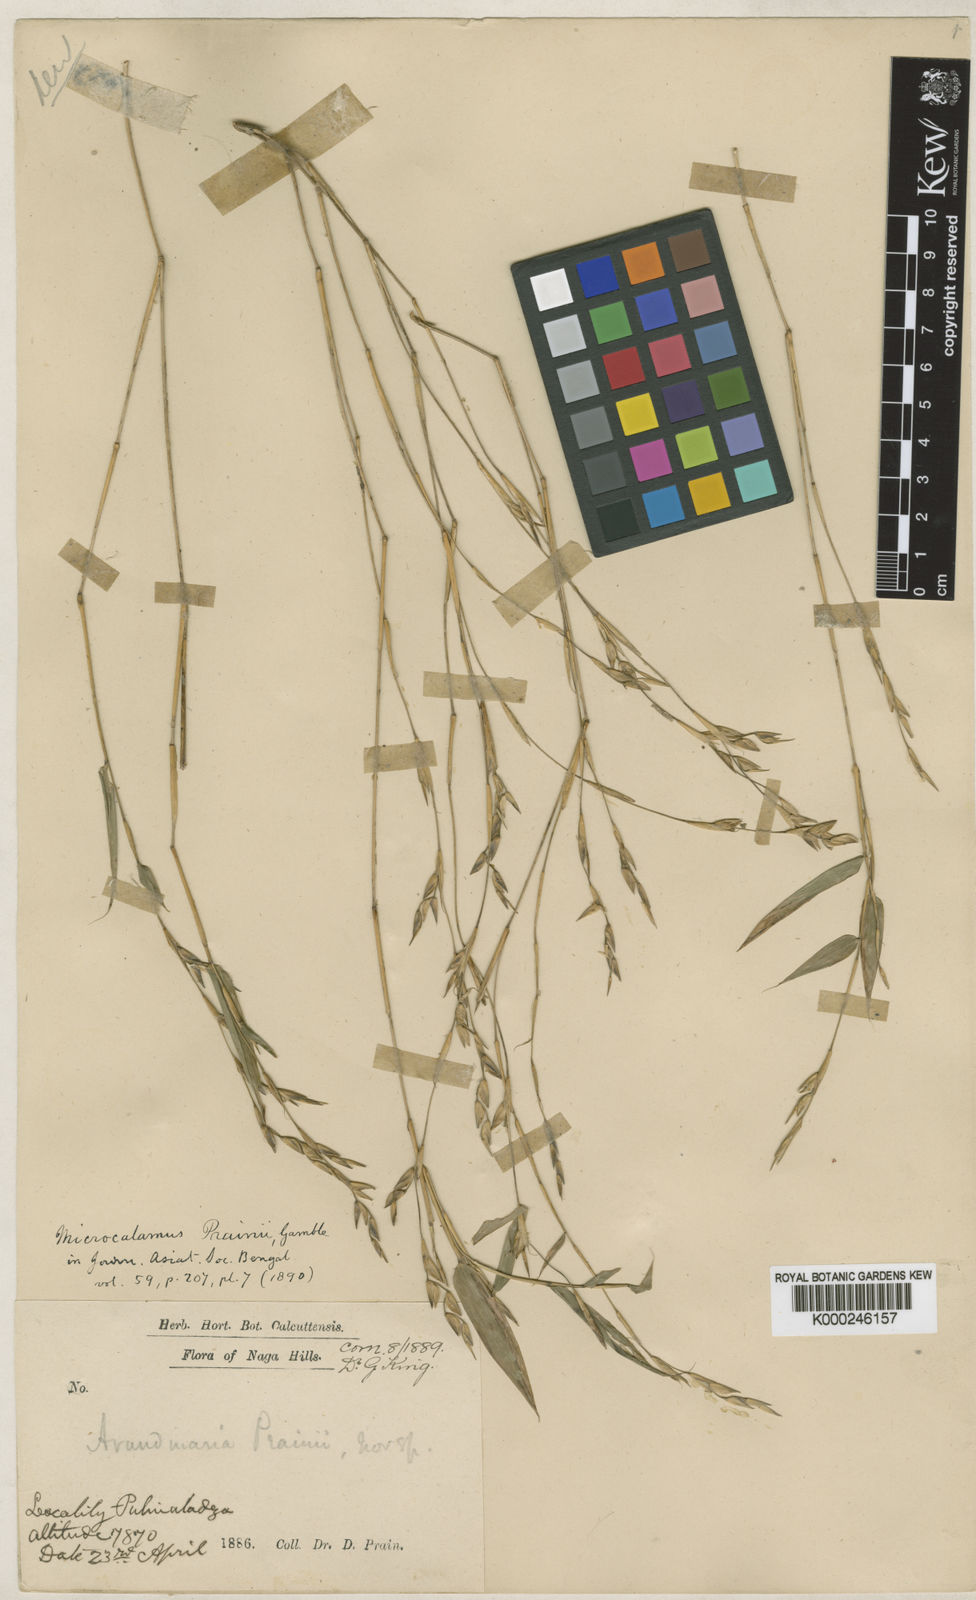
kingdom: Plantae
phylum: Tracheophyta
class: Liliopsida
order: Poales
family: Poaceae
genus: Neomicrocalamus
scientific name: Neomicrocalamus prainii
